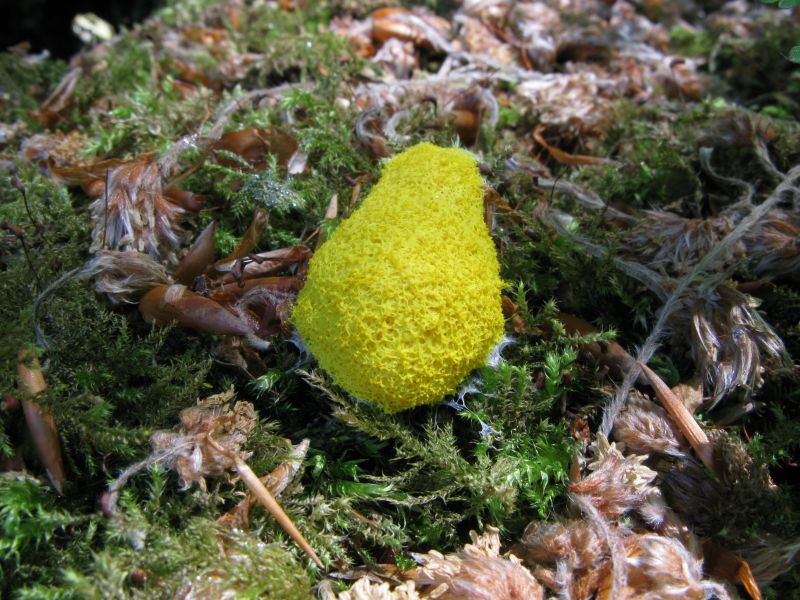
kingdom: Protozoa
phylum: Mycetozoa
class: Myxomycetes
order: Physarales
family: Physaraceae
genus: Fuligo
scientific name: Fuligo septica
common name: gul troldsmør
